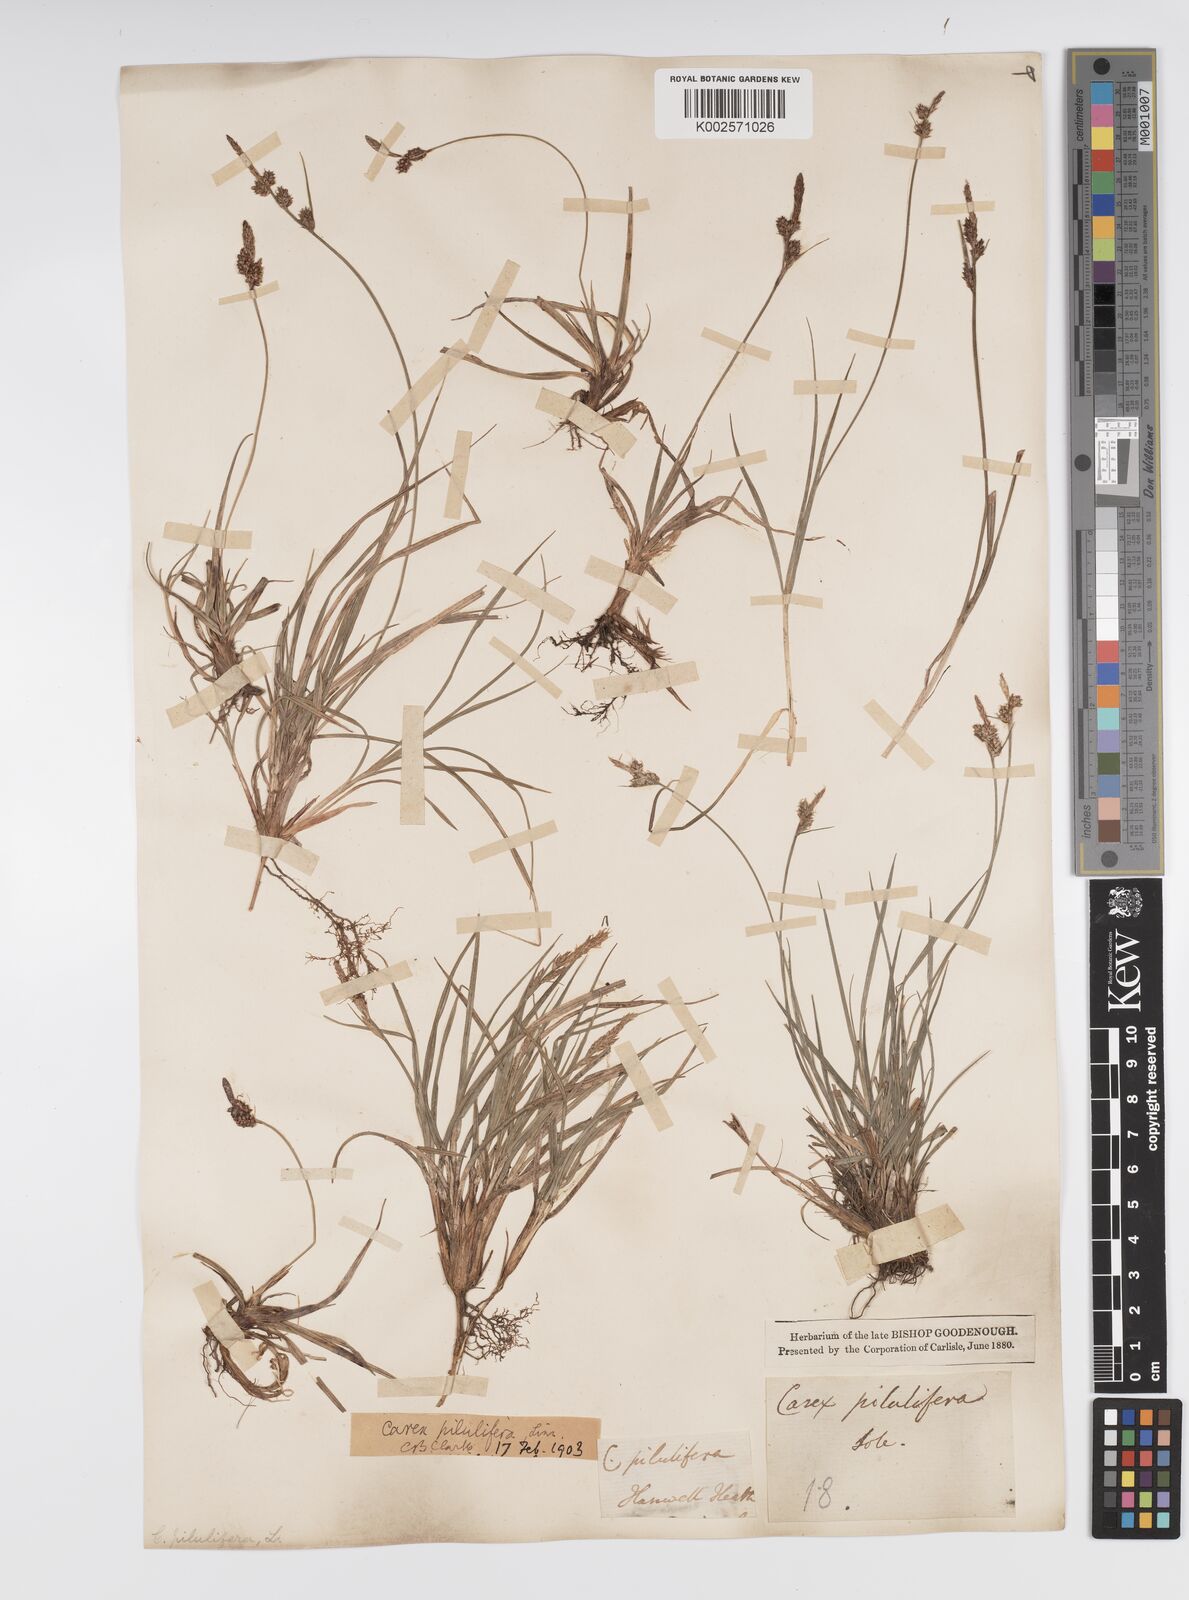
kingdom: Plantae
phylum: Tracheophyta
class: Liliopsida
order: Poales
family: Cyperaceae
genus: Carex
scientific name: Carex pilulifera
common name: Pill sedge
